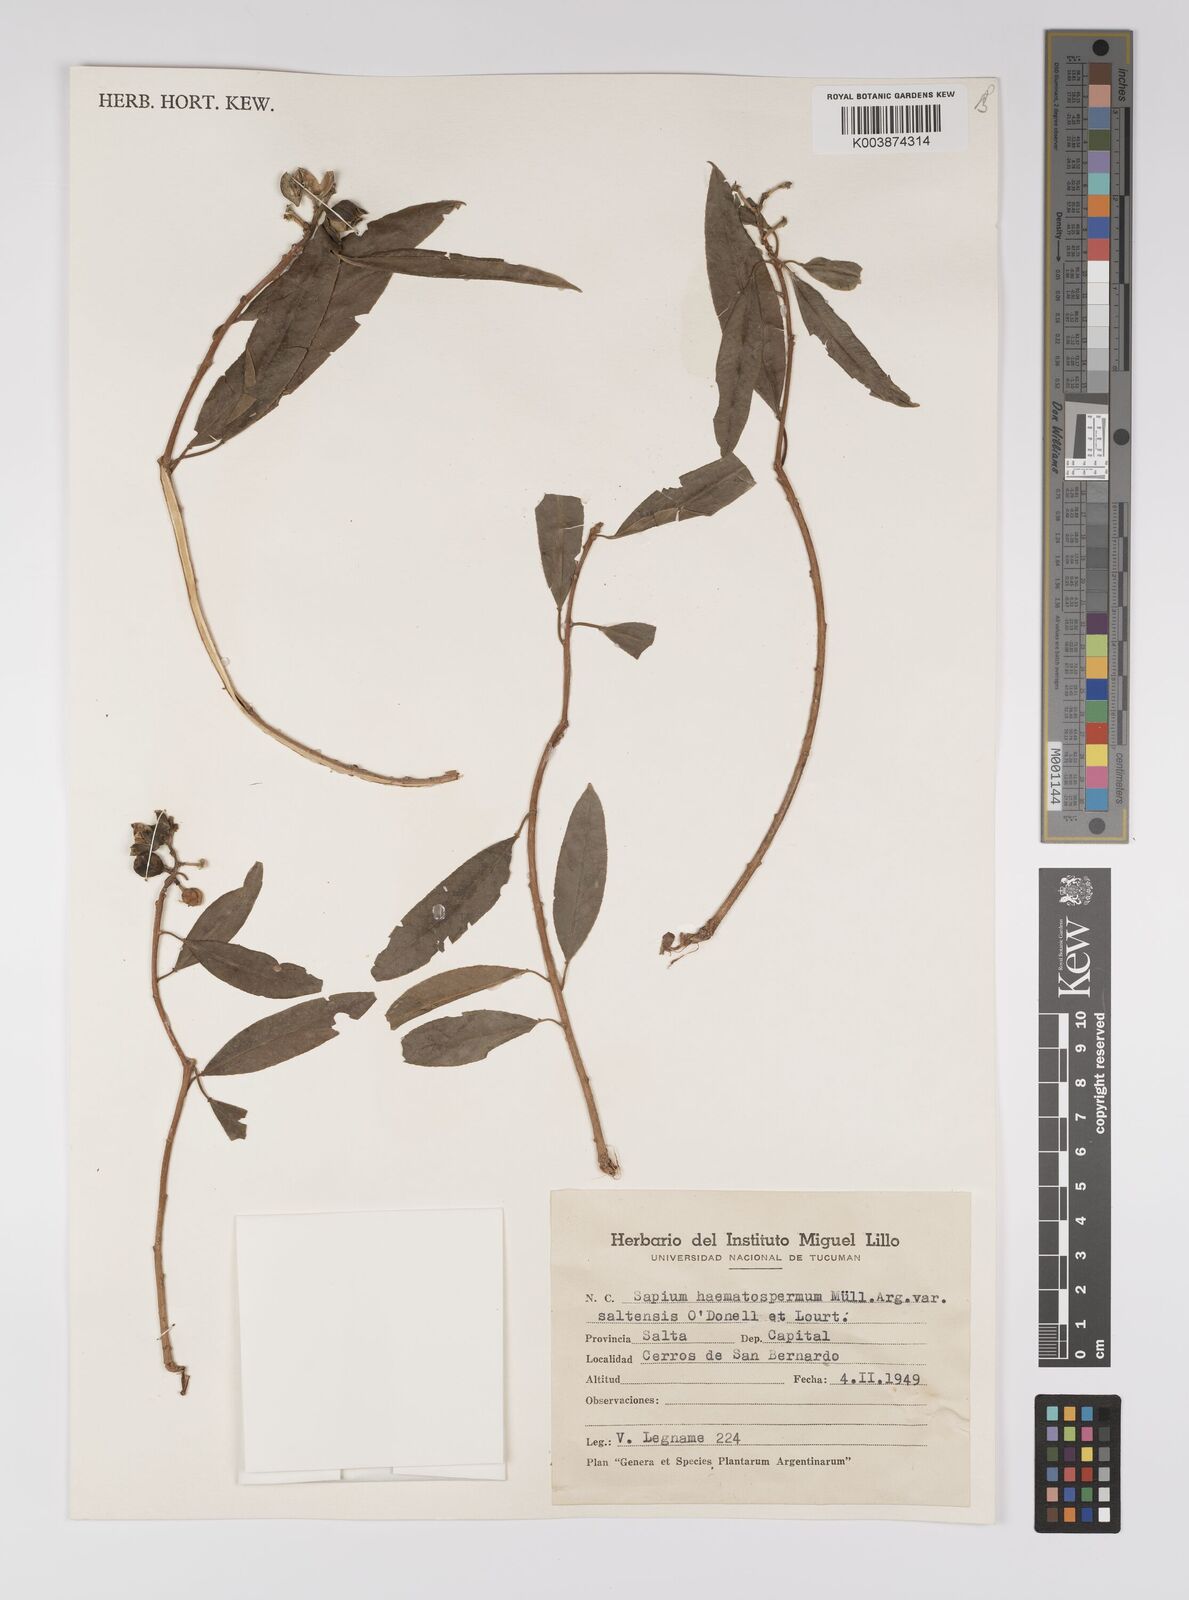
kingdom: Plantae
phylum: Tracheophyta
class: Magnoliopsida
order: Malpighiales
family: Euphorbiaceae
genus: Sapium
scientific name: Sapium glandulosum
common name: Milktree
